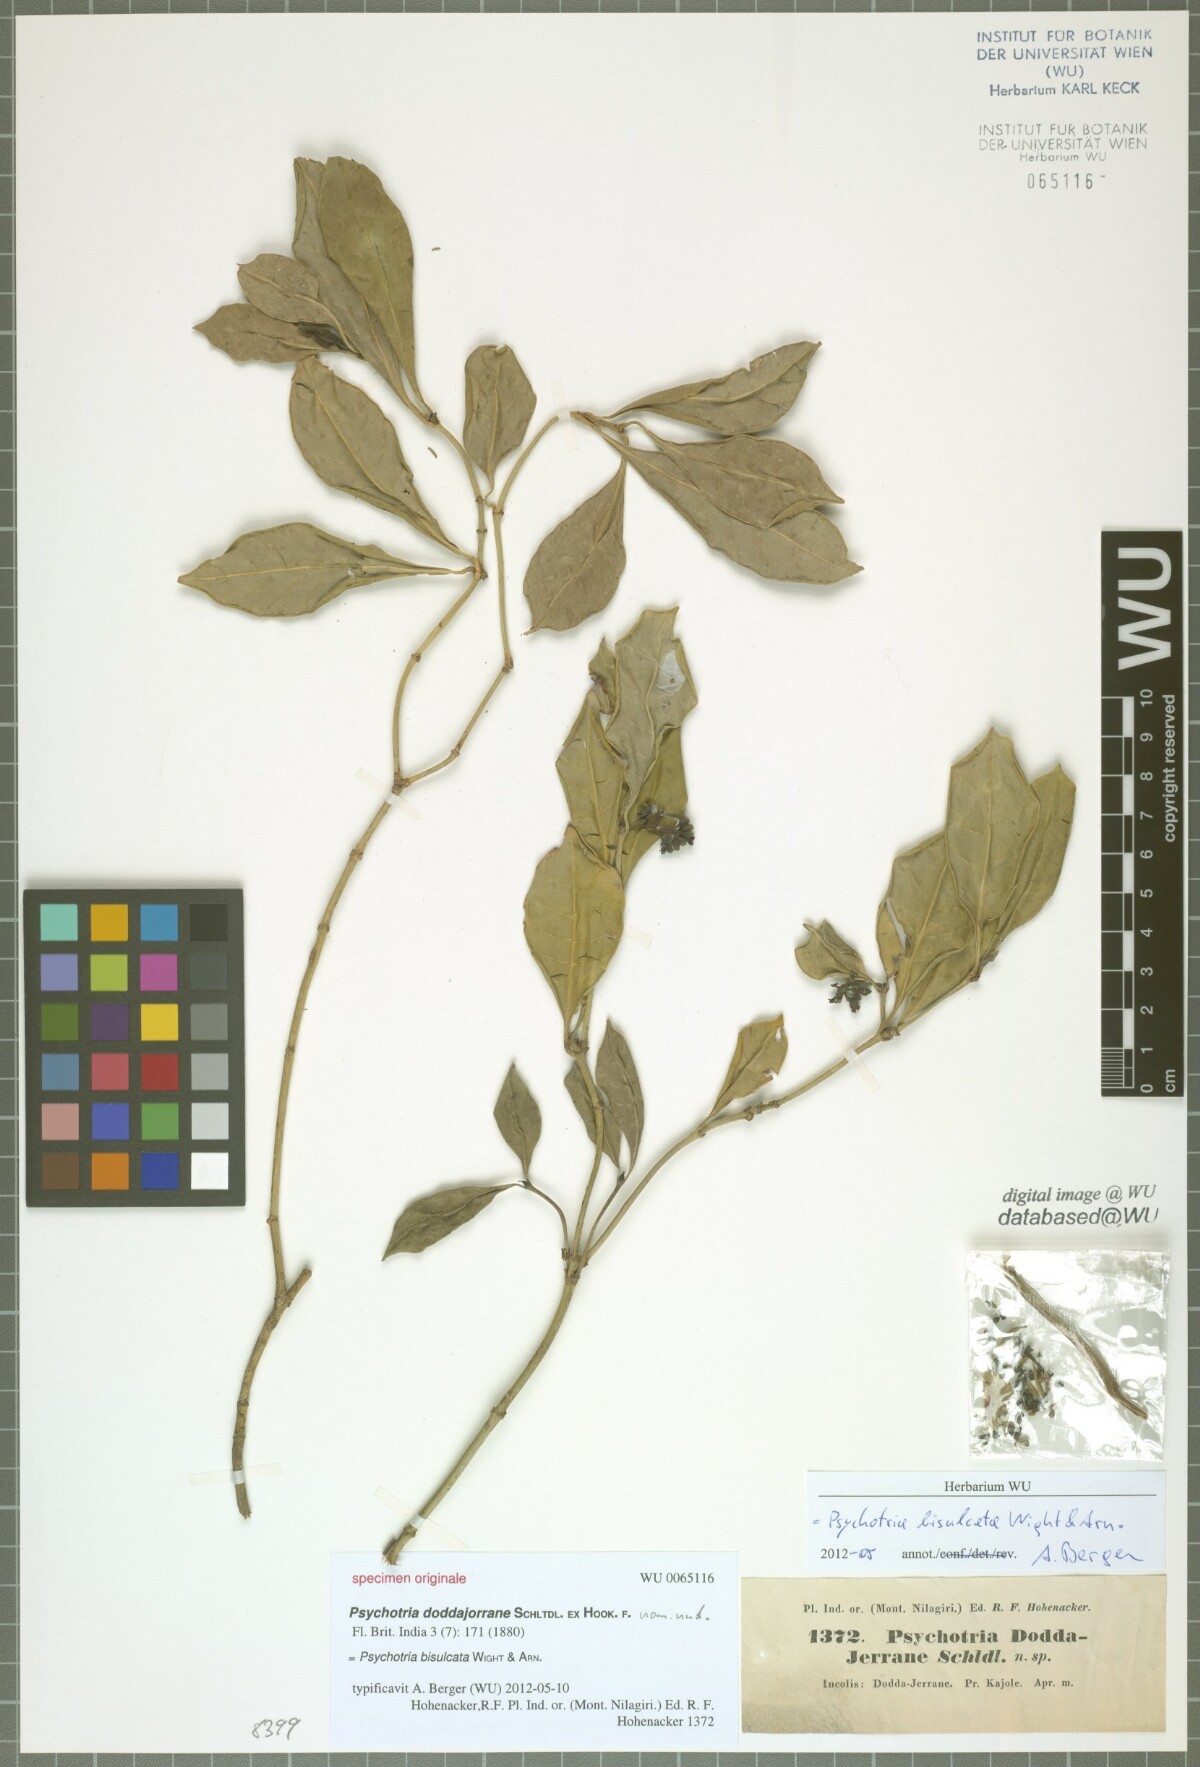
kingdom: Plantae
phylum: Tracheophyta
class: Magnoliopsida
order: Gentianales
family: Rubiaceae
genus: Psychotria
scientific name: Psychotria bisulcata
